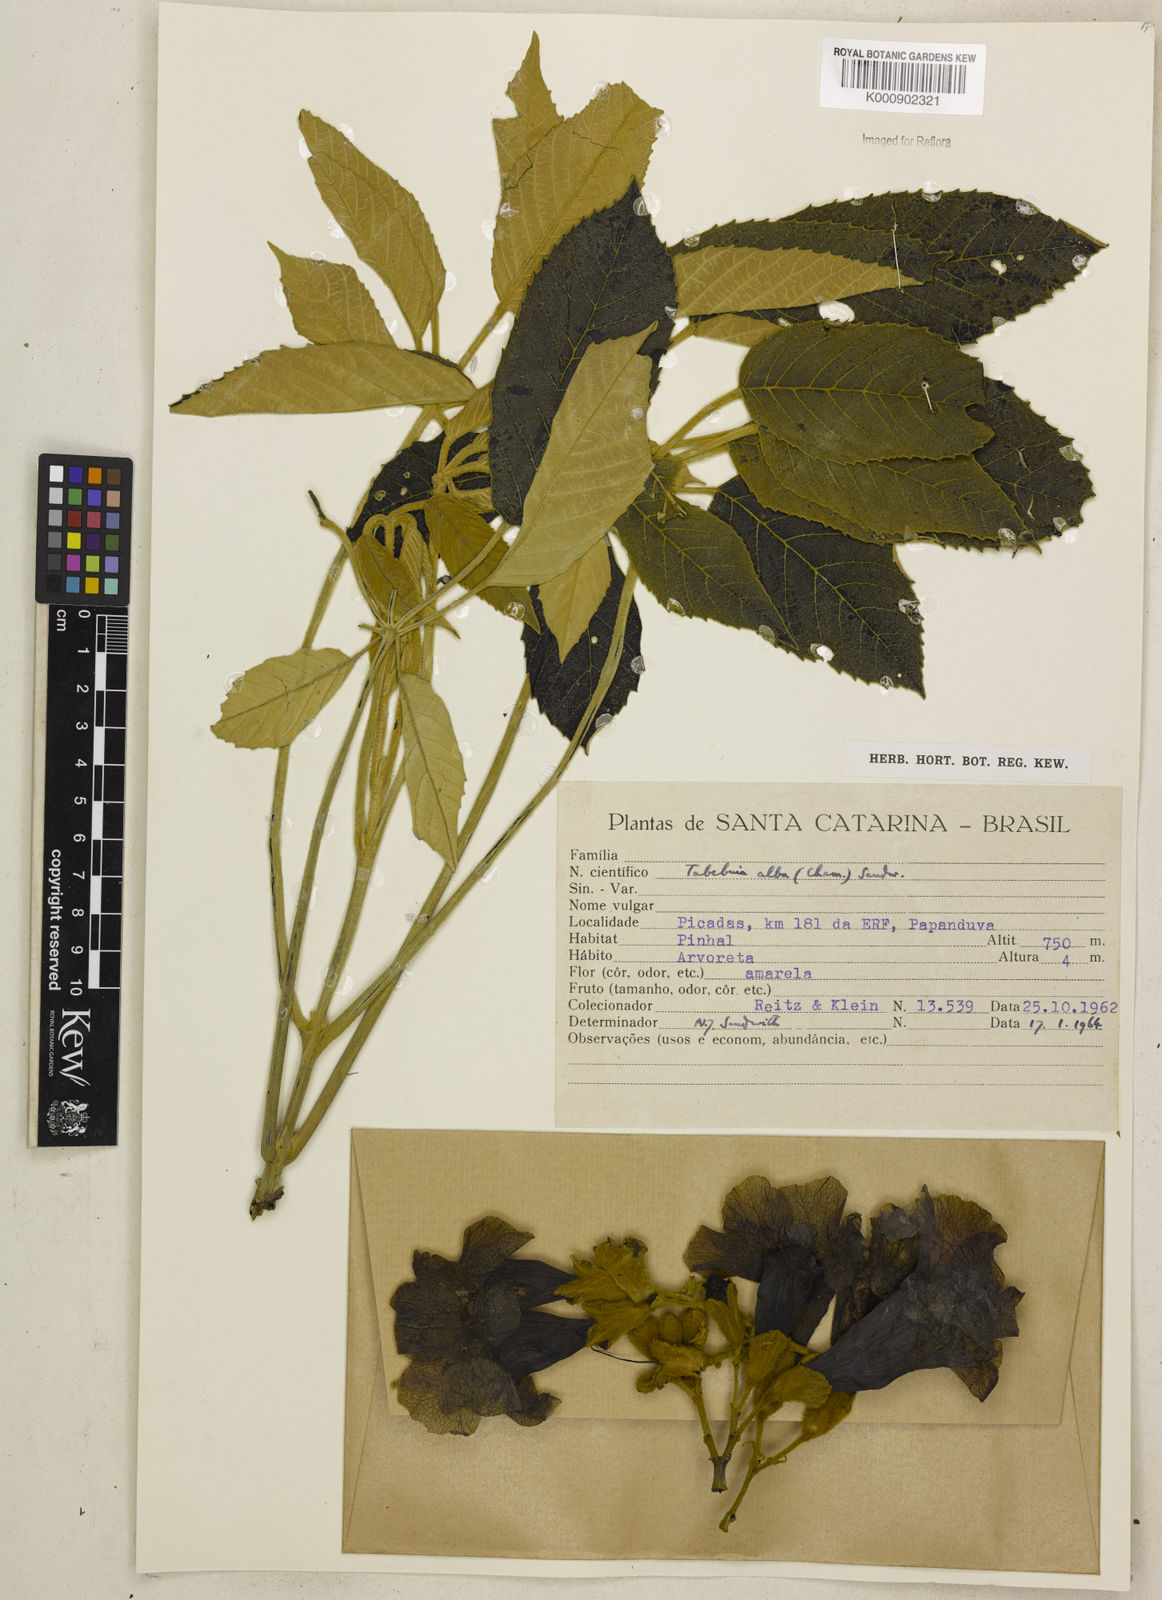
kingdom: Plantae
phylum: Tracheophyta
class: Magnoliopsida
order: Lamiales
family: Bignoniaceae
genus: Handroanthus
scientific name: Handroanthus albus
